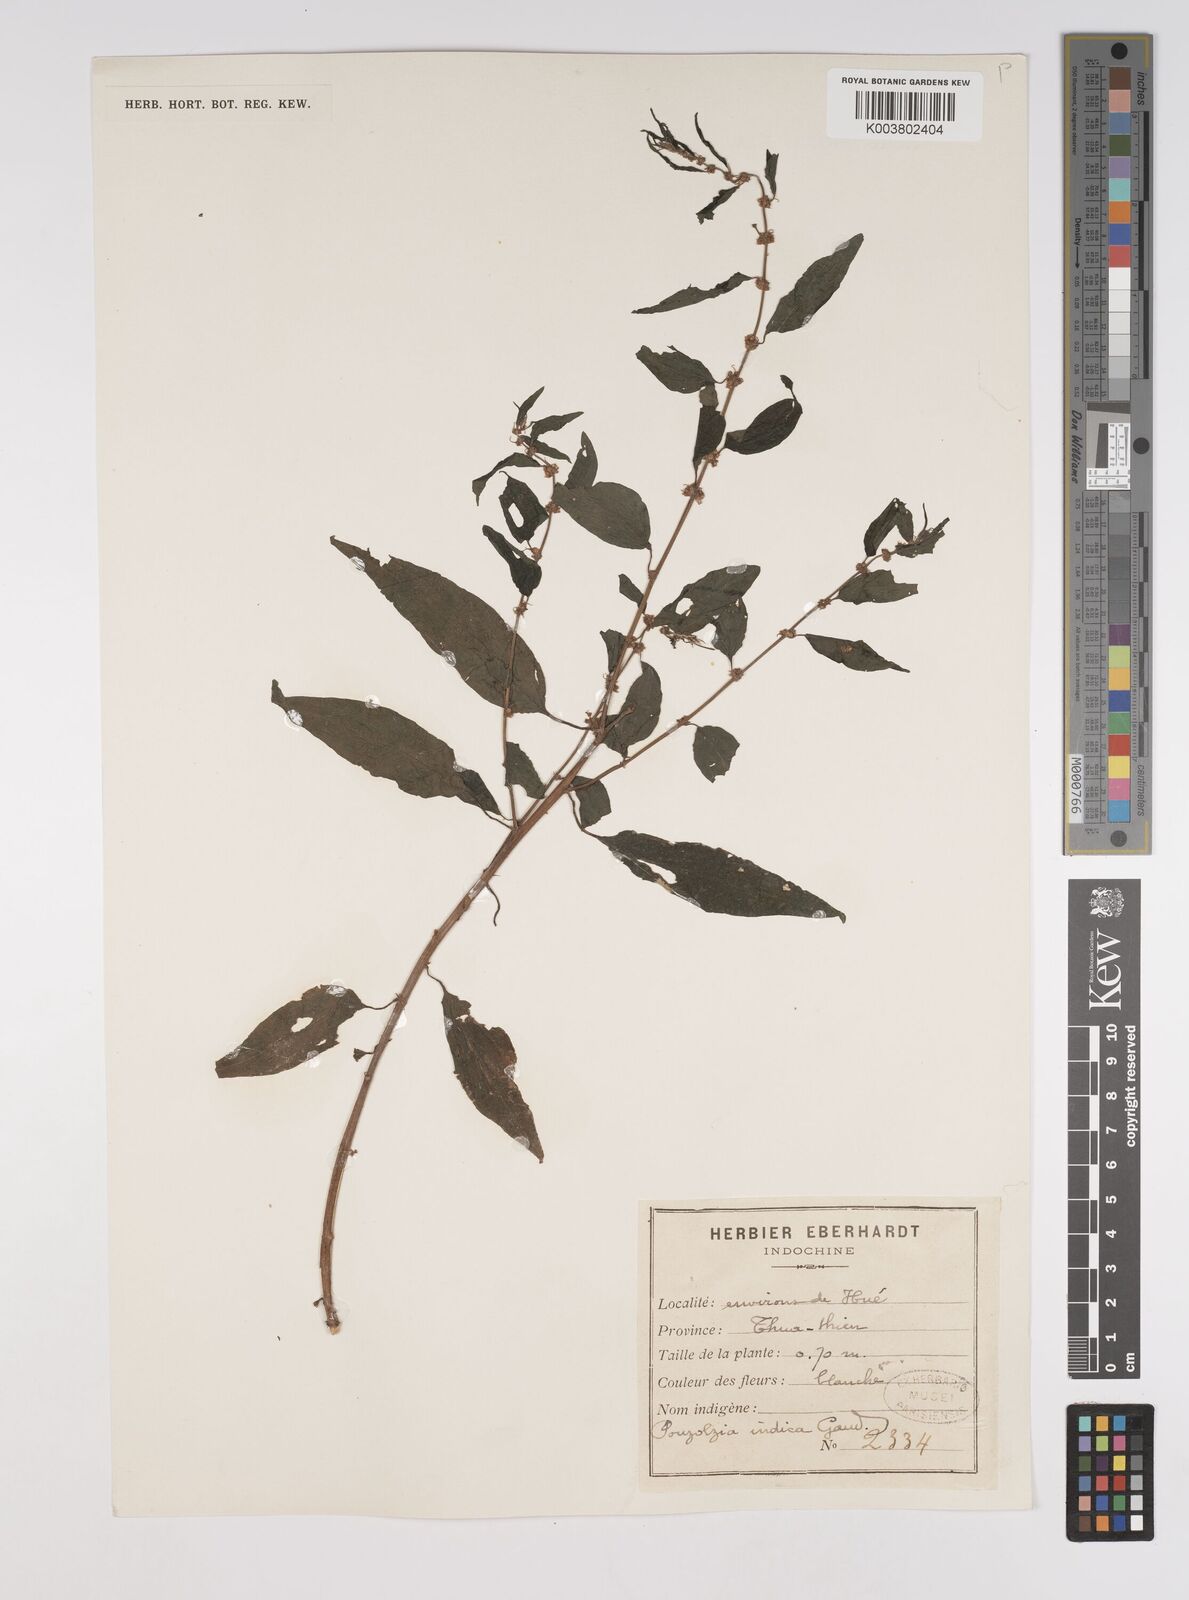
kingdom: Plantae
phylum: Tracheophyta
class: Magnoliopsida
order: Rosales
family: Urticaceae
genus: Pouzolzia
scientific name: Pouzolzia zeylanica
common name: Graceful pouzolzsbush
